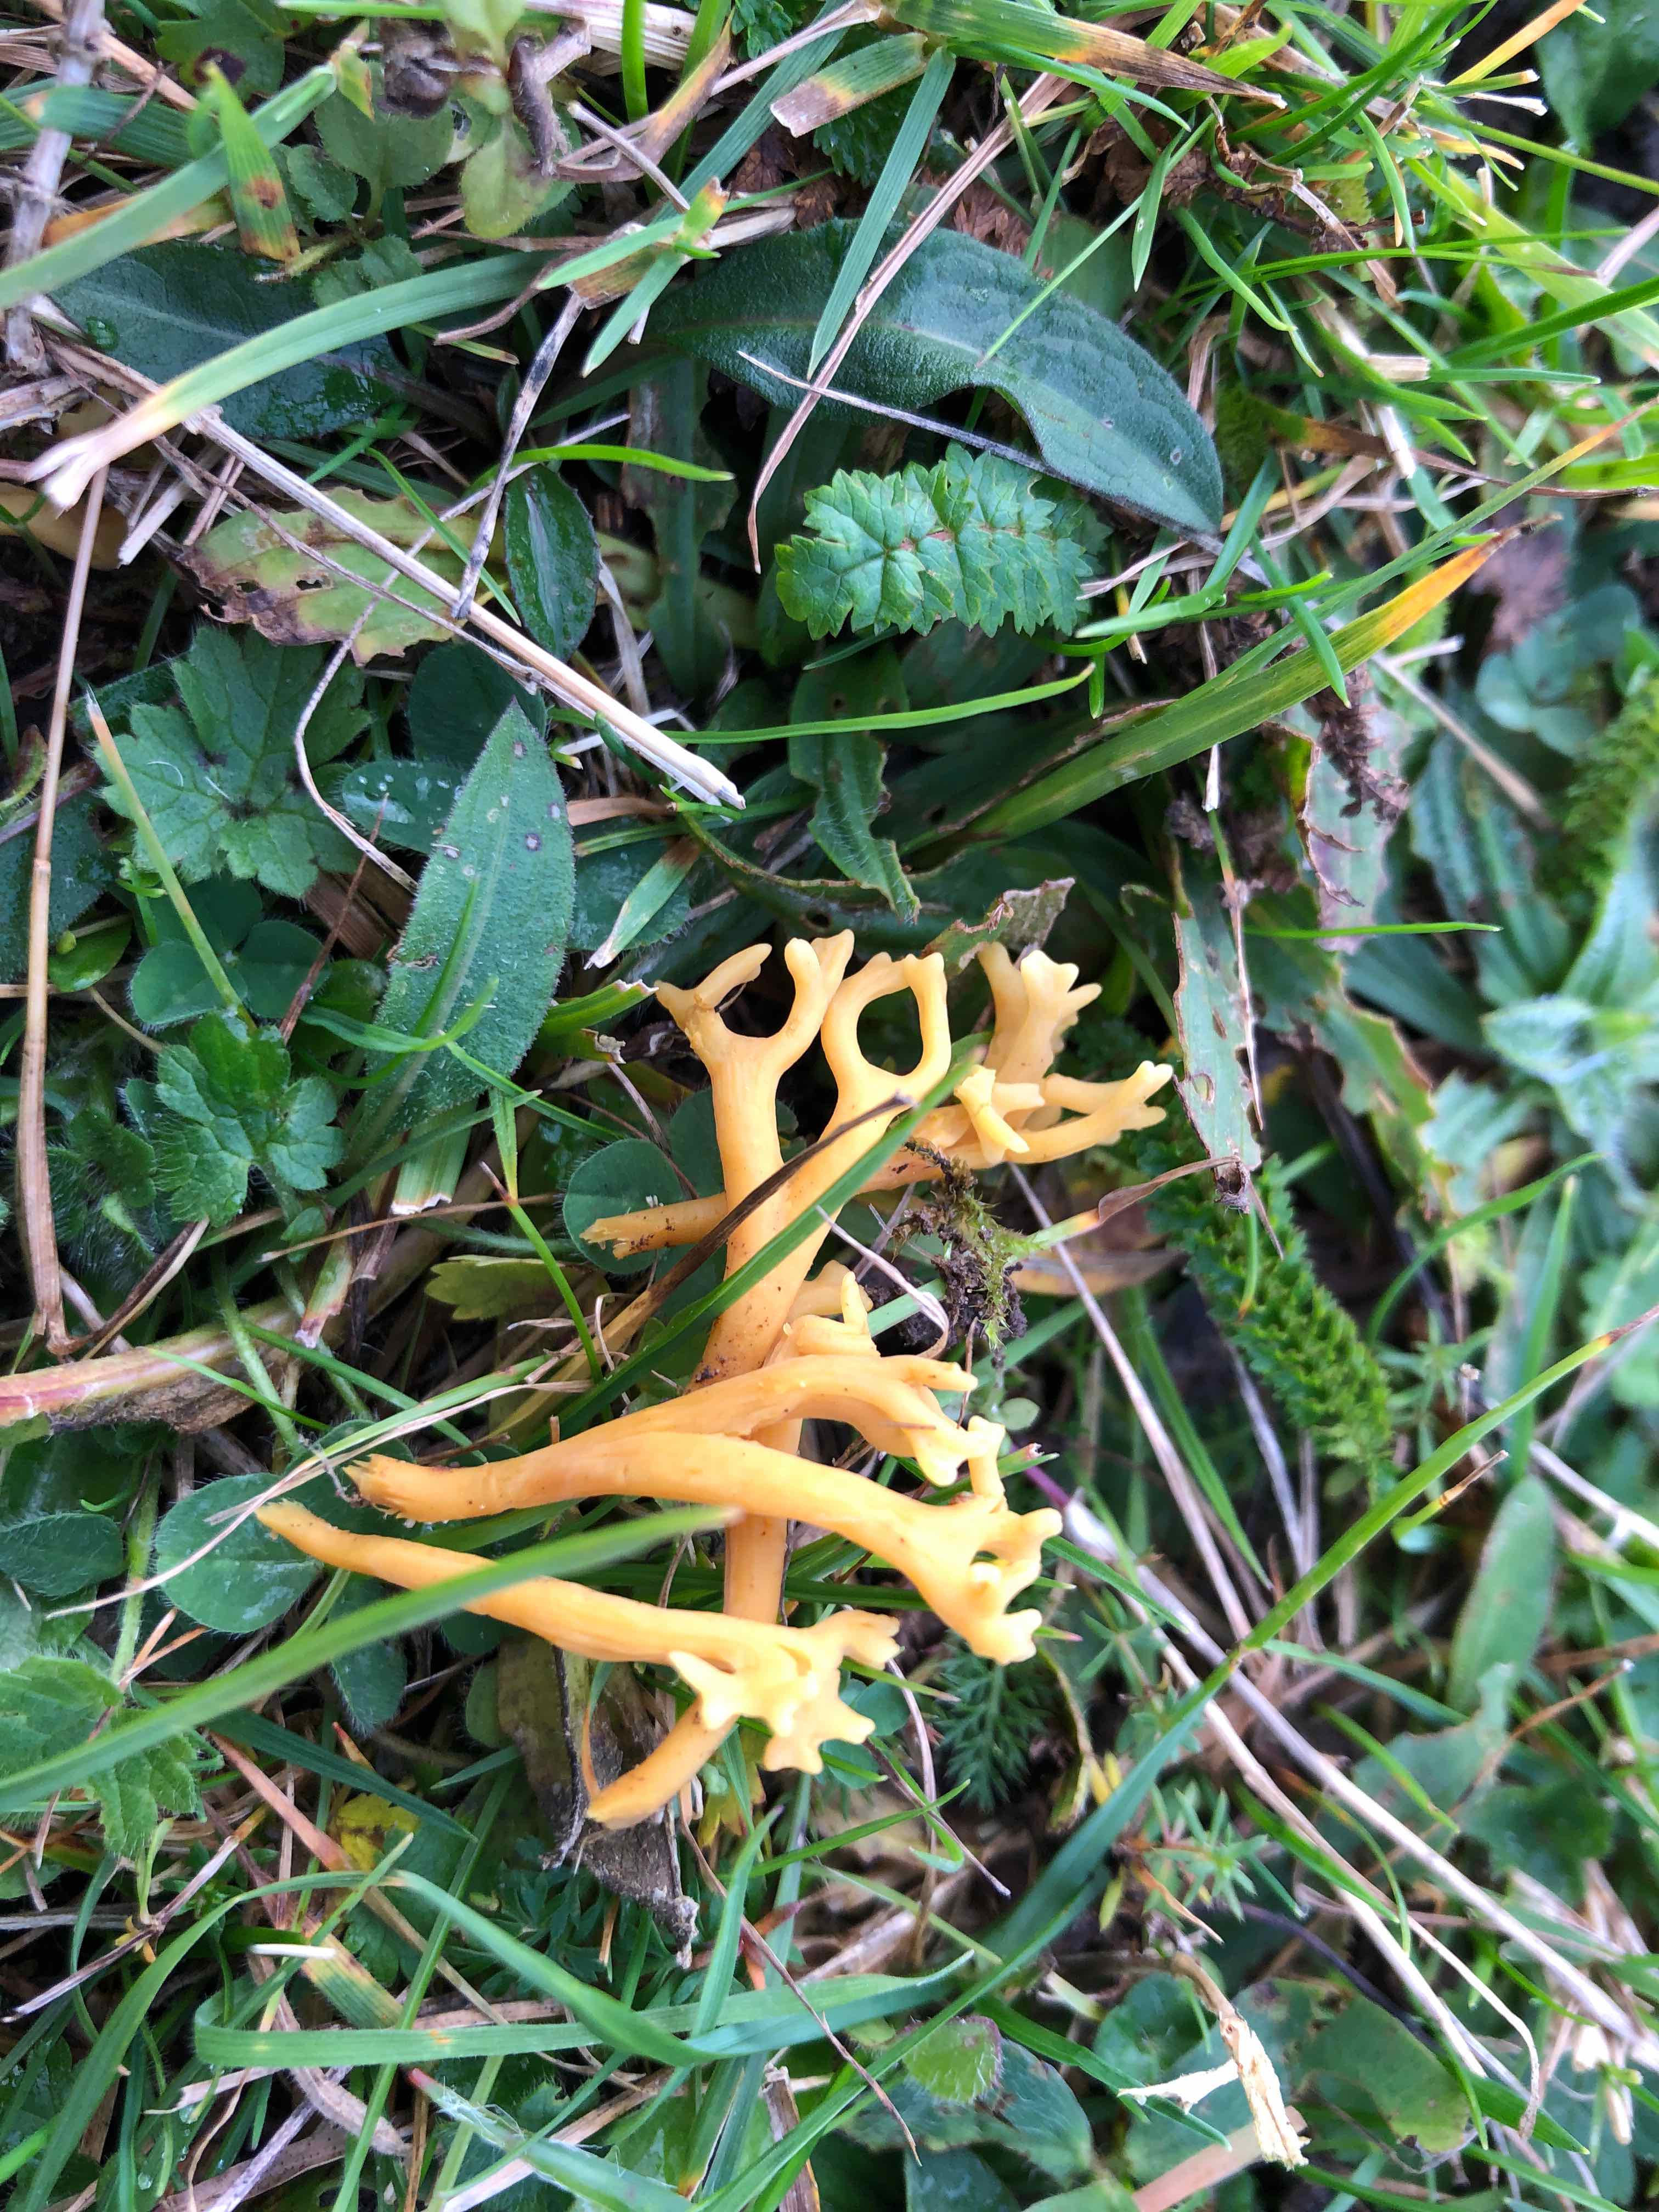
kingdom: Fungi
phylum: Basidiomycota
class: Agaricomycetes
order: Agaricales
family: Clavariaceae
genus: Clavulinopsis
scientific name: Clavulinopsis corniculata
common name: eng-køllesvamp
